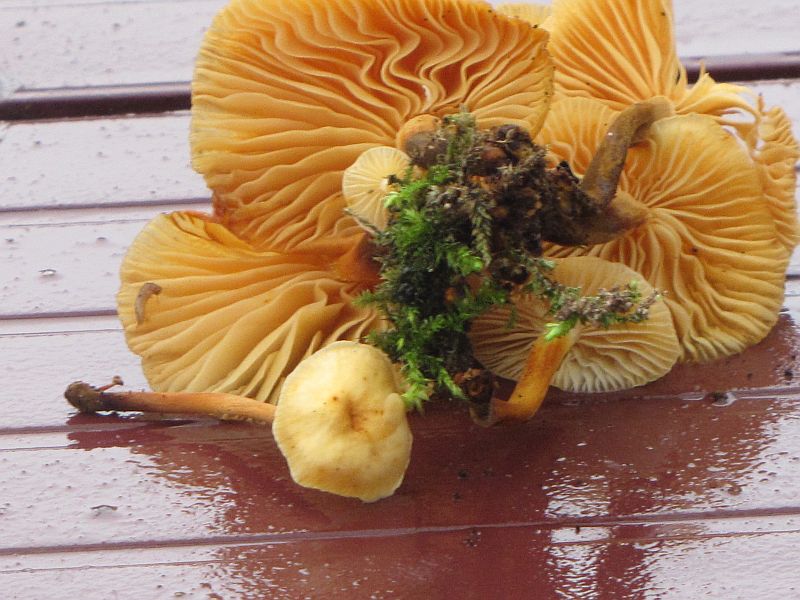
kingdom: Fungi
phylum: Basidiomycota
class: Agaricomycetes
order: Agaricales
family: Physalacriaceae
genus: Flammulina
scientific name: Flammulina elastica
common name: pile-fløjlsfod
